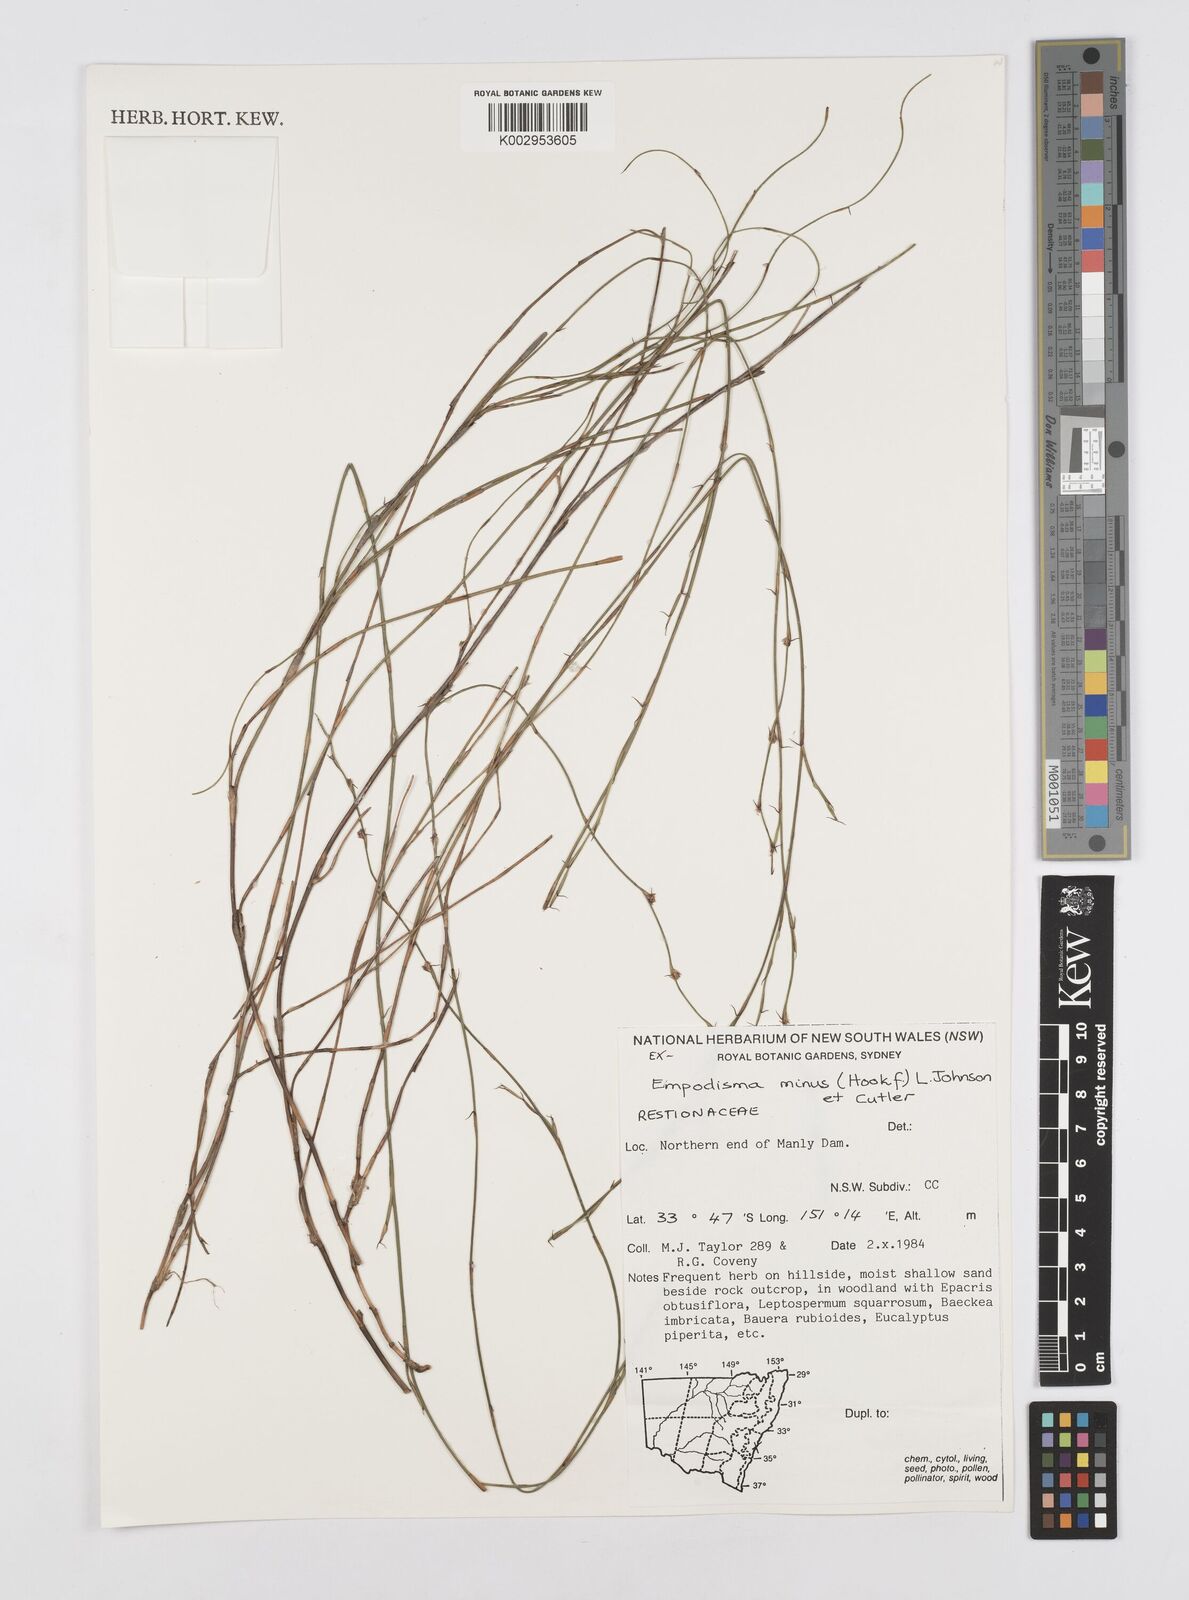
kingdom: Plantae
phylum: Tracheophyta
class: Liliopsida
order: Poales
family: Restionaceae
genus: Empodisma
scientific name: Empodisma minus
